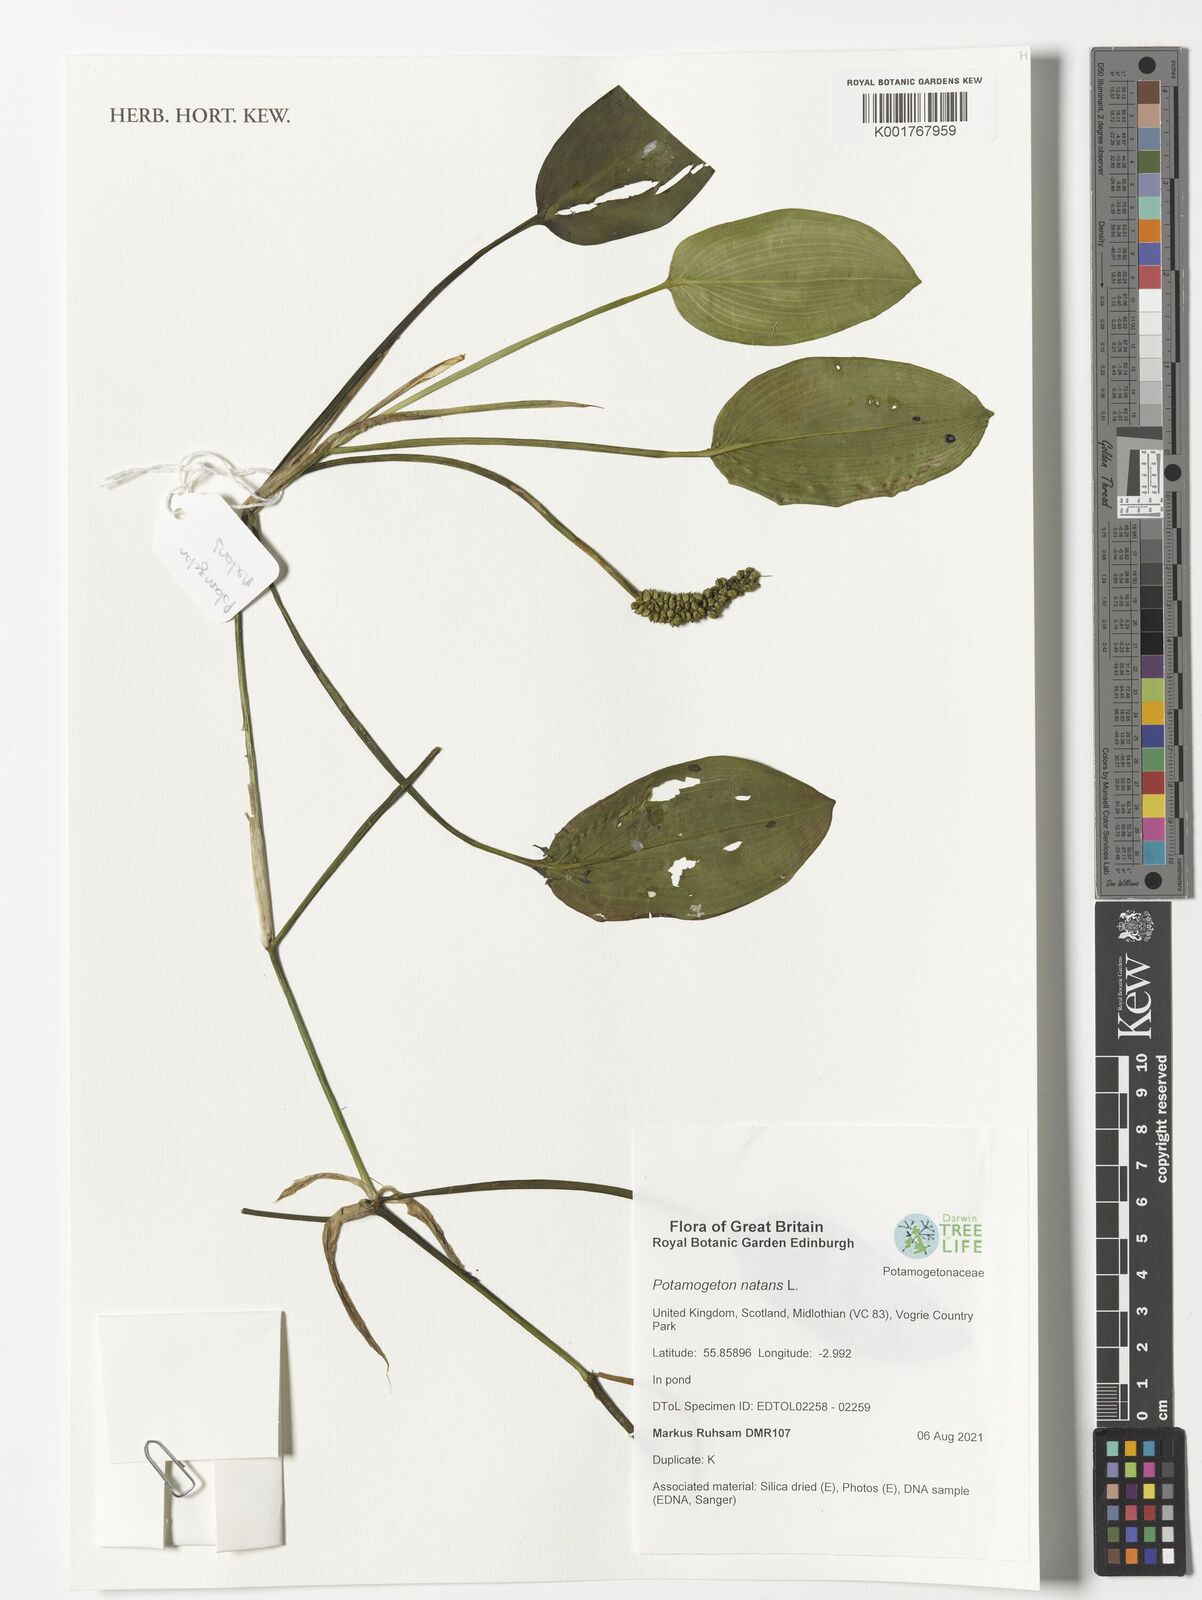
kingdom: Plantae
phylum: Tracheophyta
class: Liliopsida
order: Alismatales
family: Potamogetonaceae
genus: Potamogeton
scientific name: Potamogeton natans
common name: Broad-leaved pondweed
